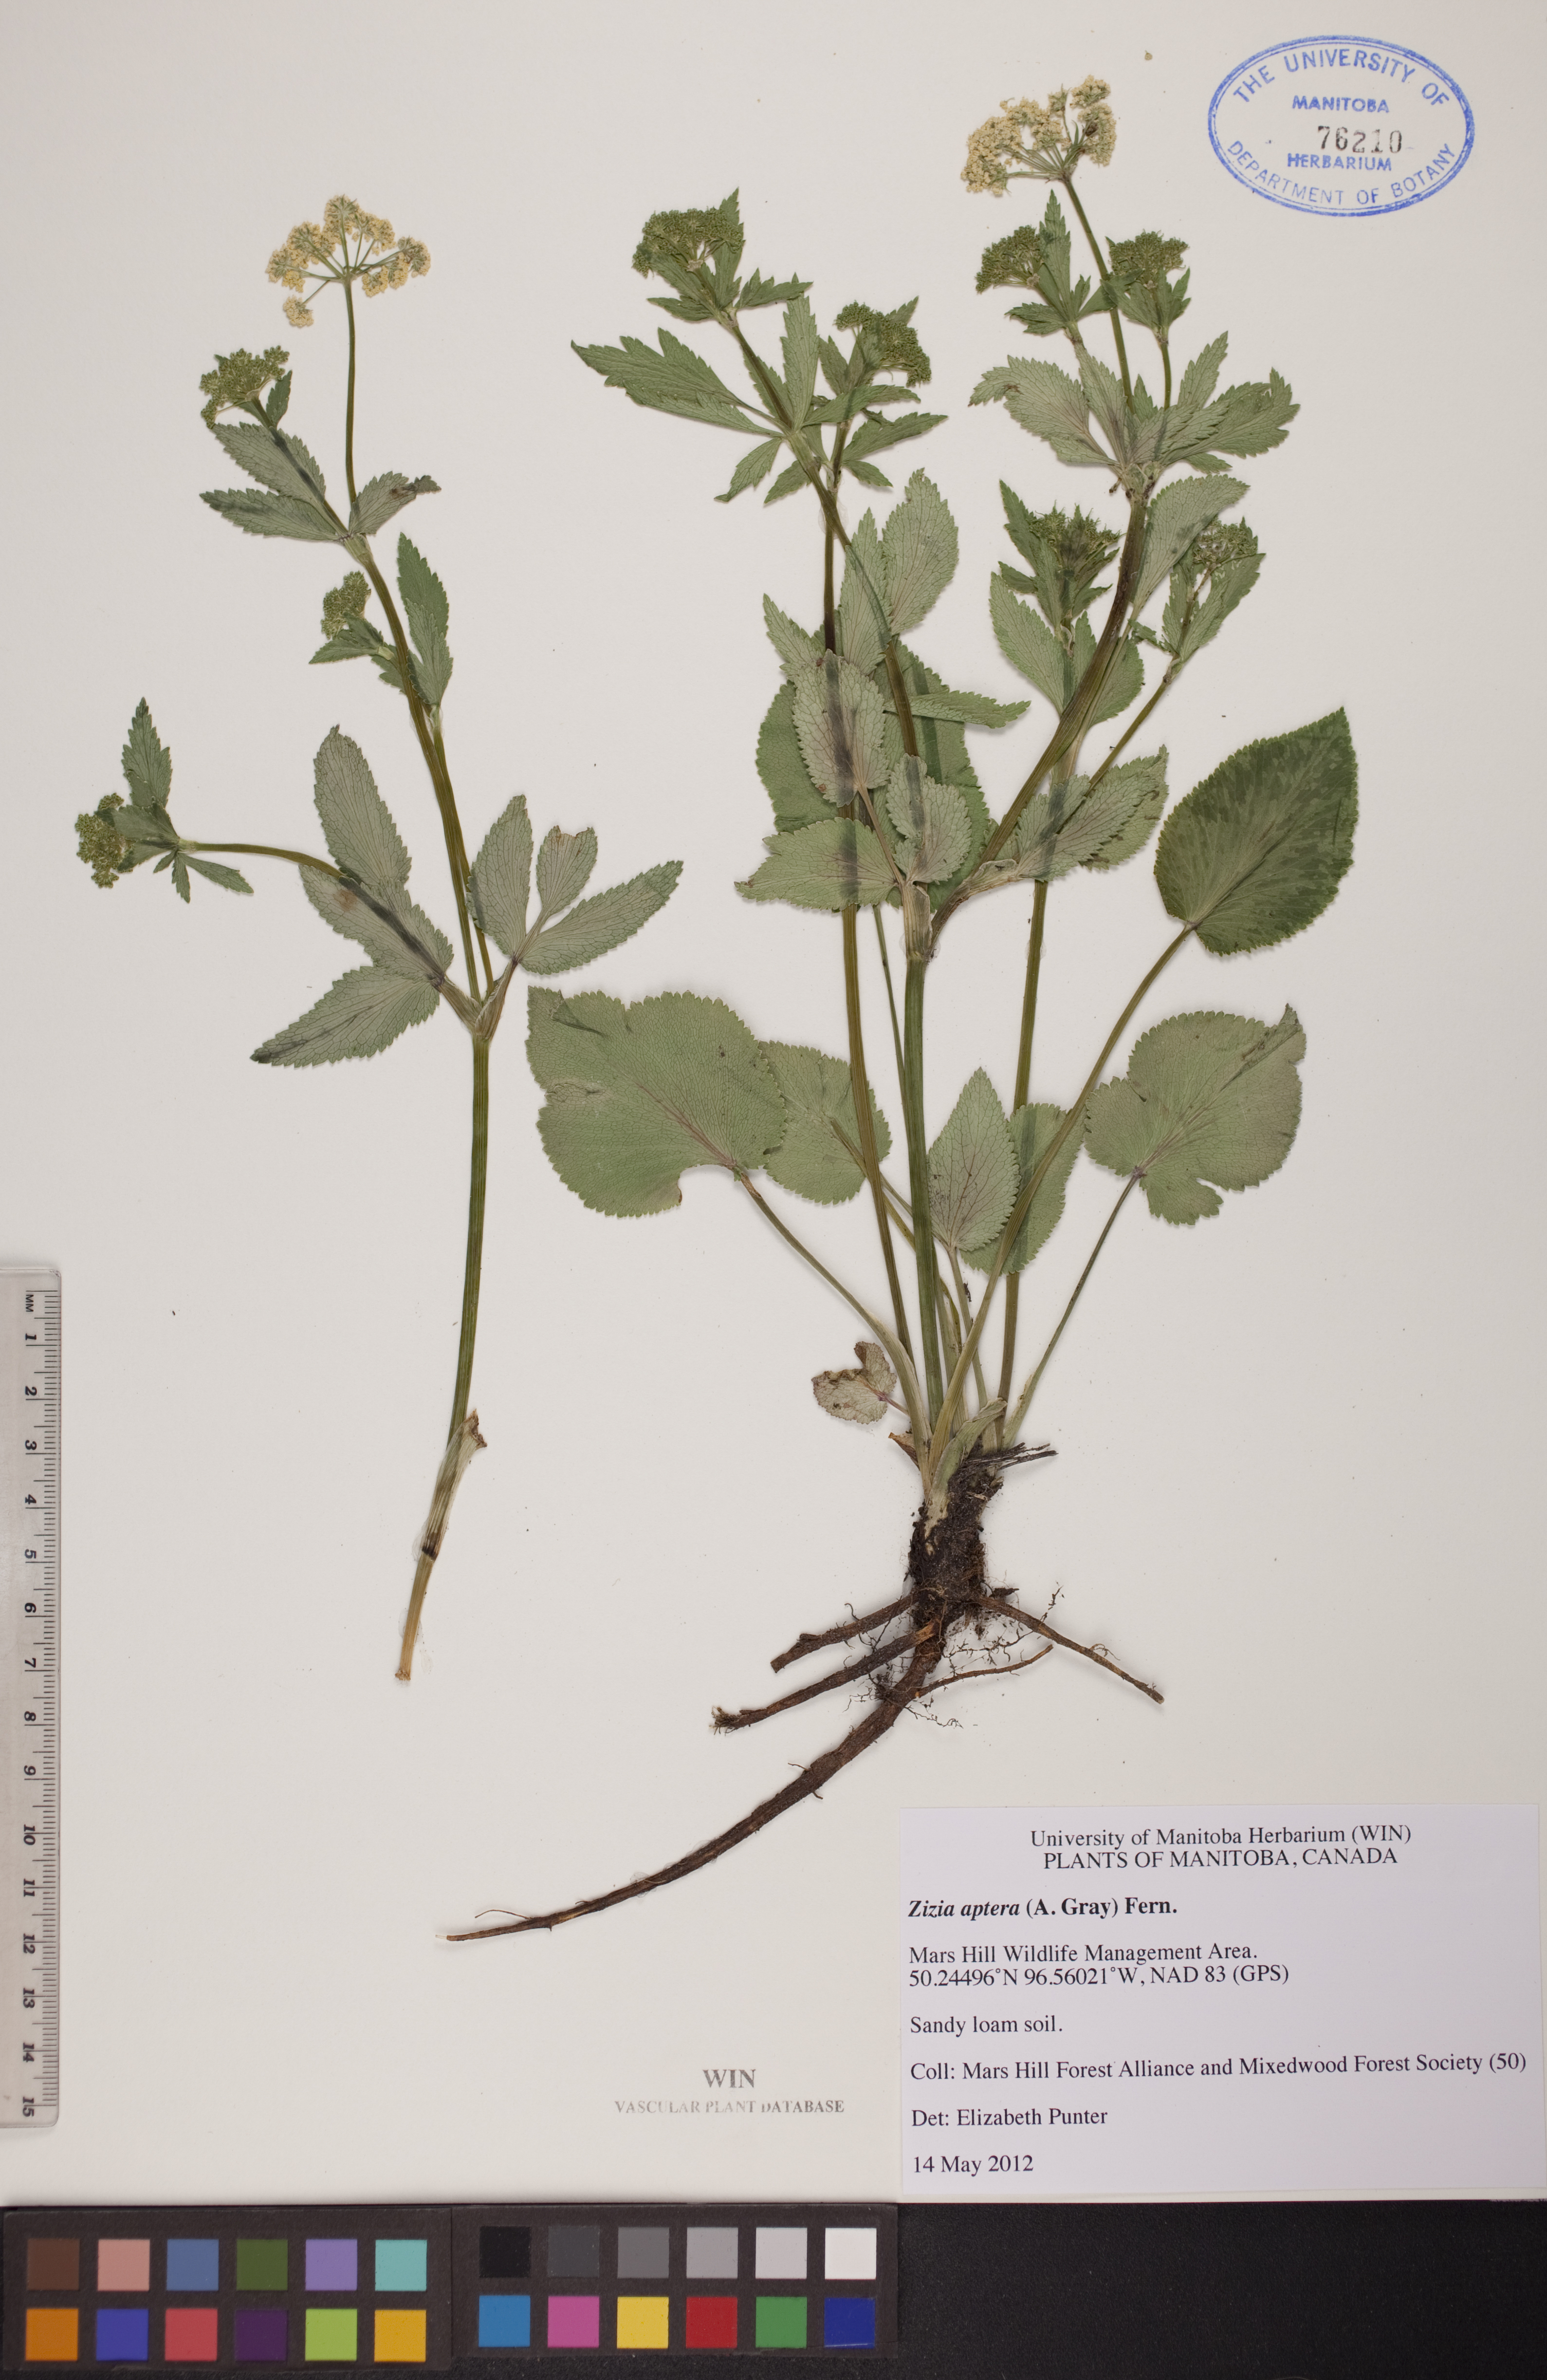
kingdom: Plantae
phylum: Tracheophyta
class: Magnoliopsida
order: Apiales
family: Apiaceae
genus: Zizia
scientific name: Zizia aptera
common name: Heart-leaved alexanders
